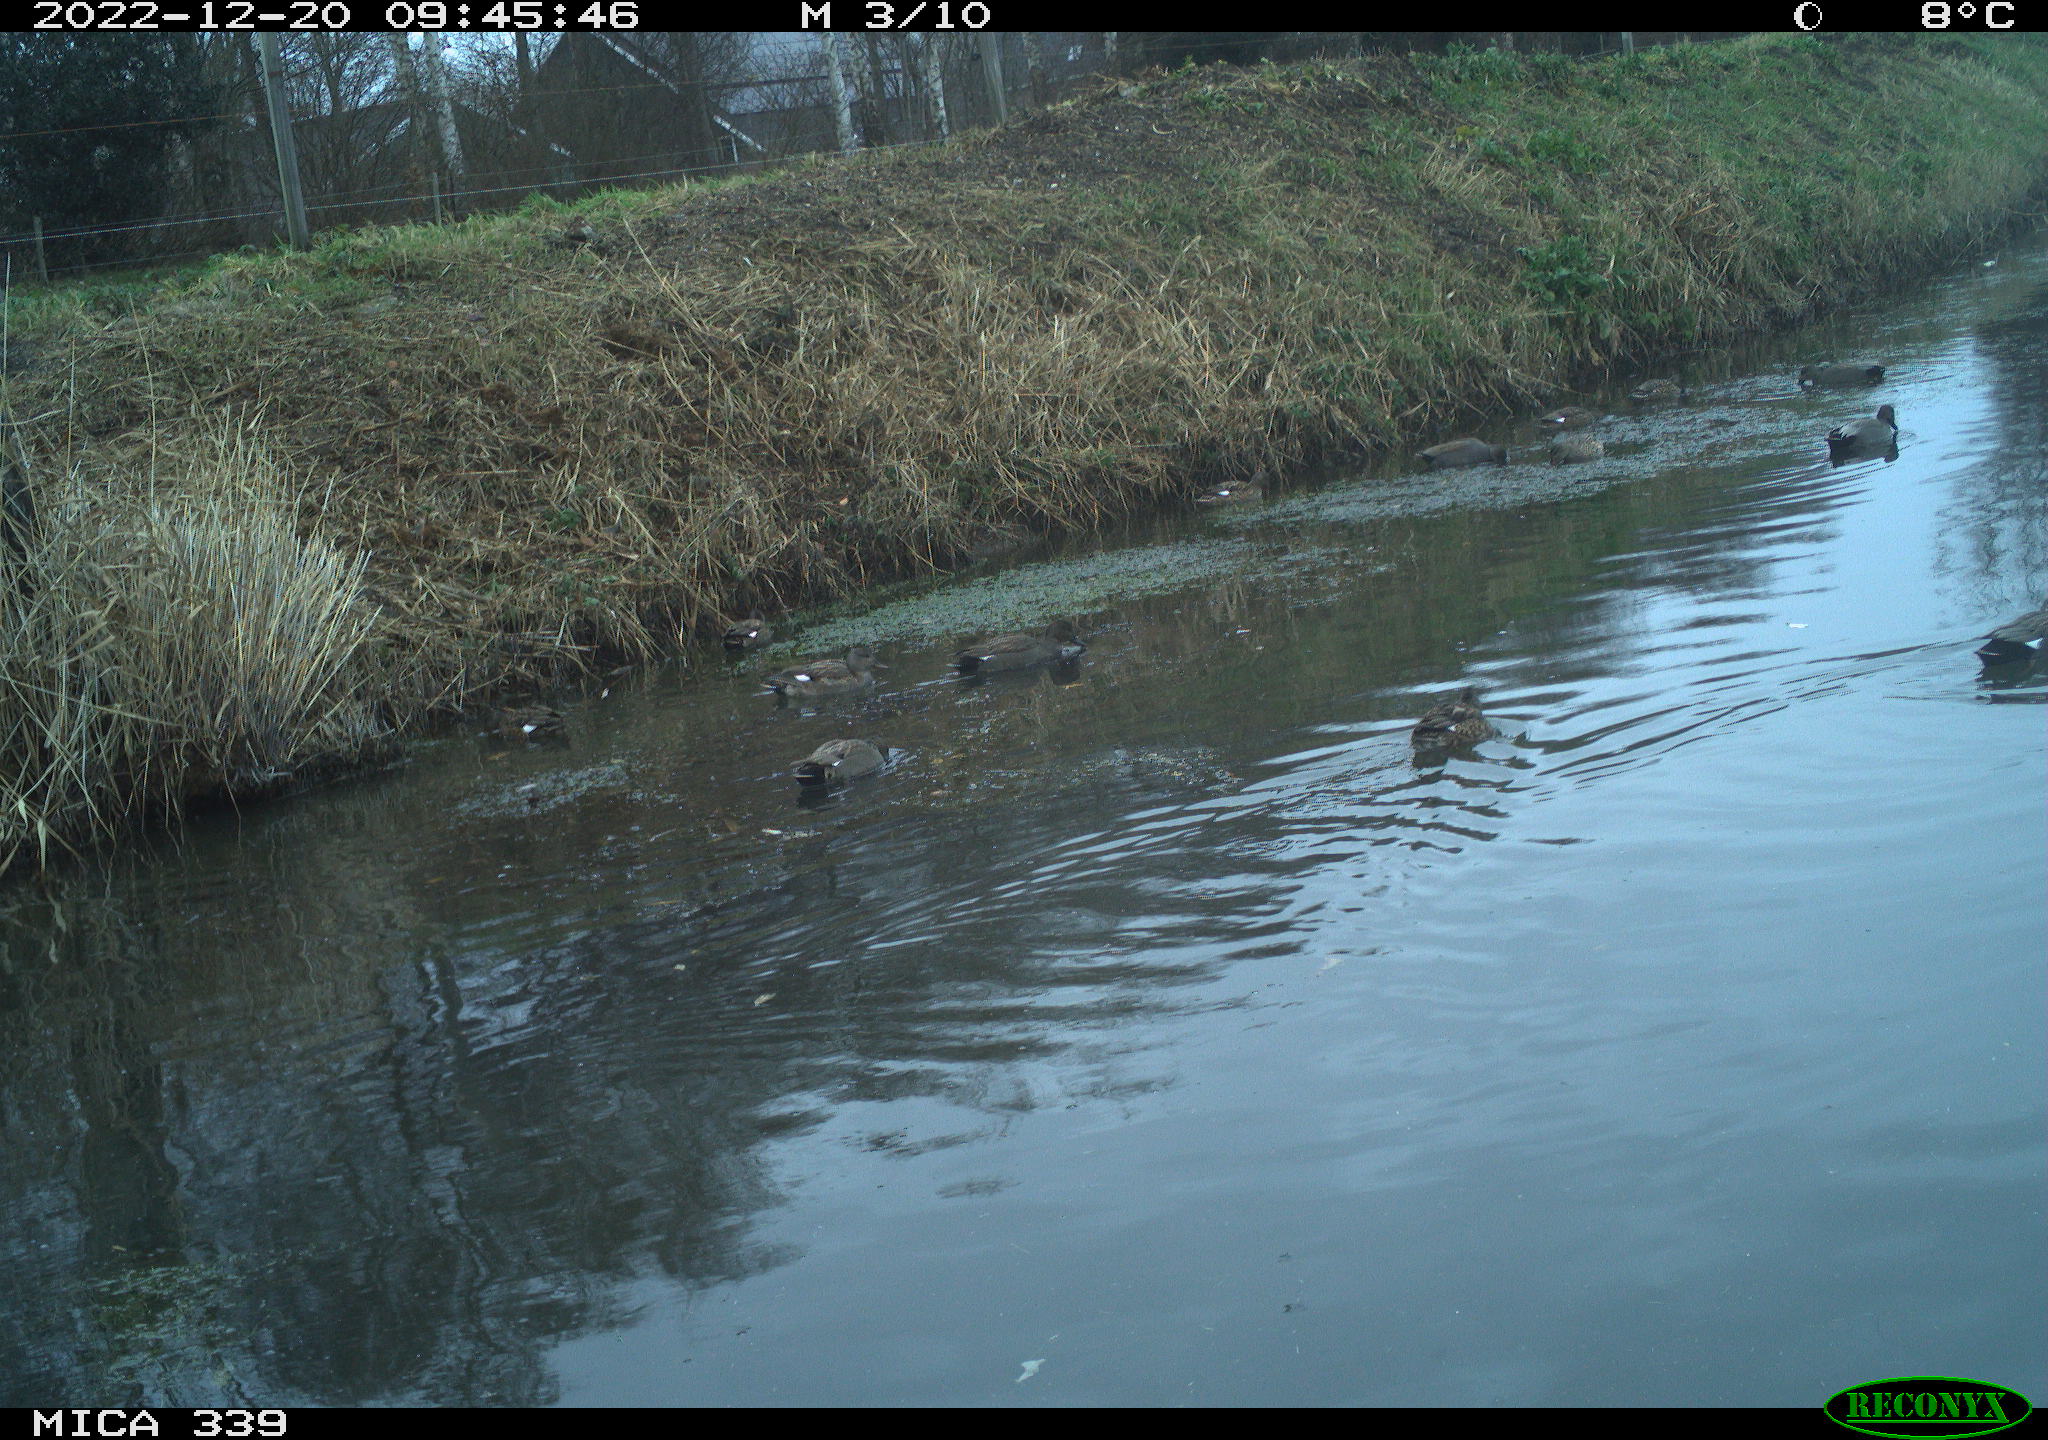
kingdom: Animalia
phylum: Chordata
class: Aves
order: Anseriformes
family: Anatidae
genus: Anas
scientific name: Anas
